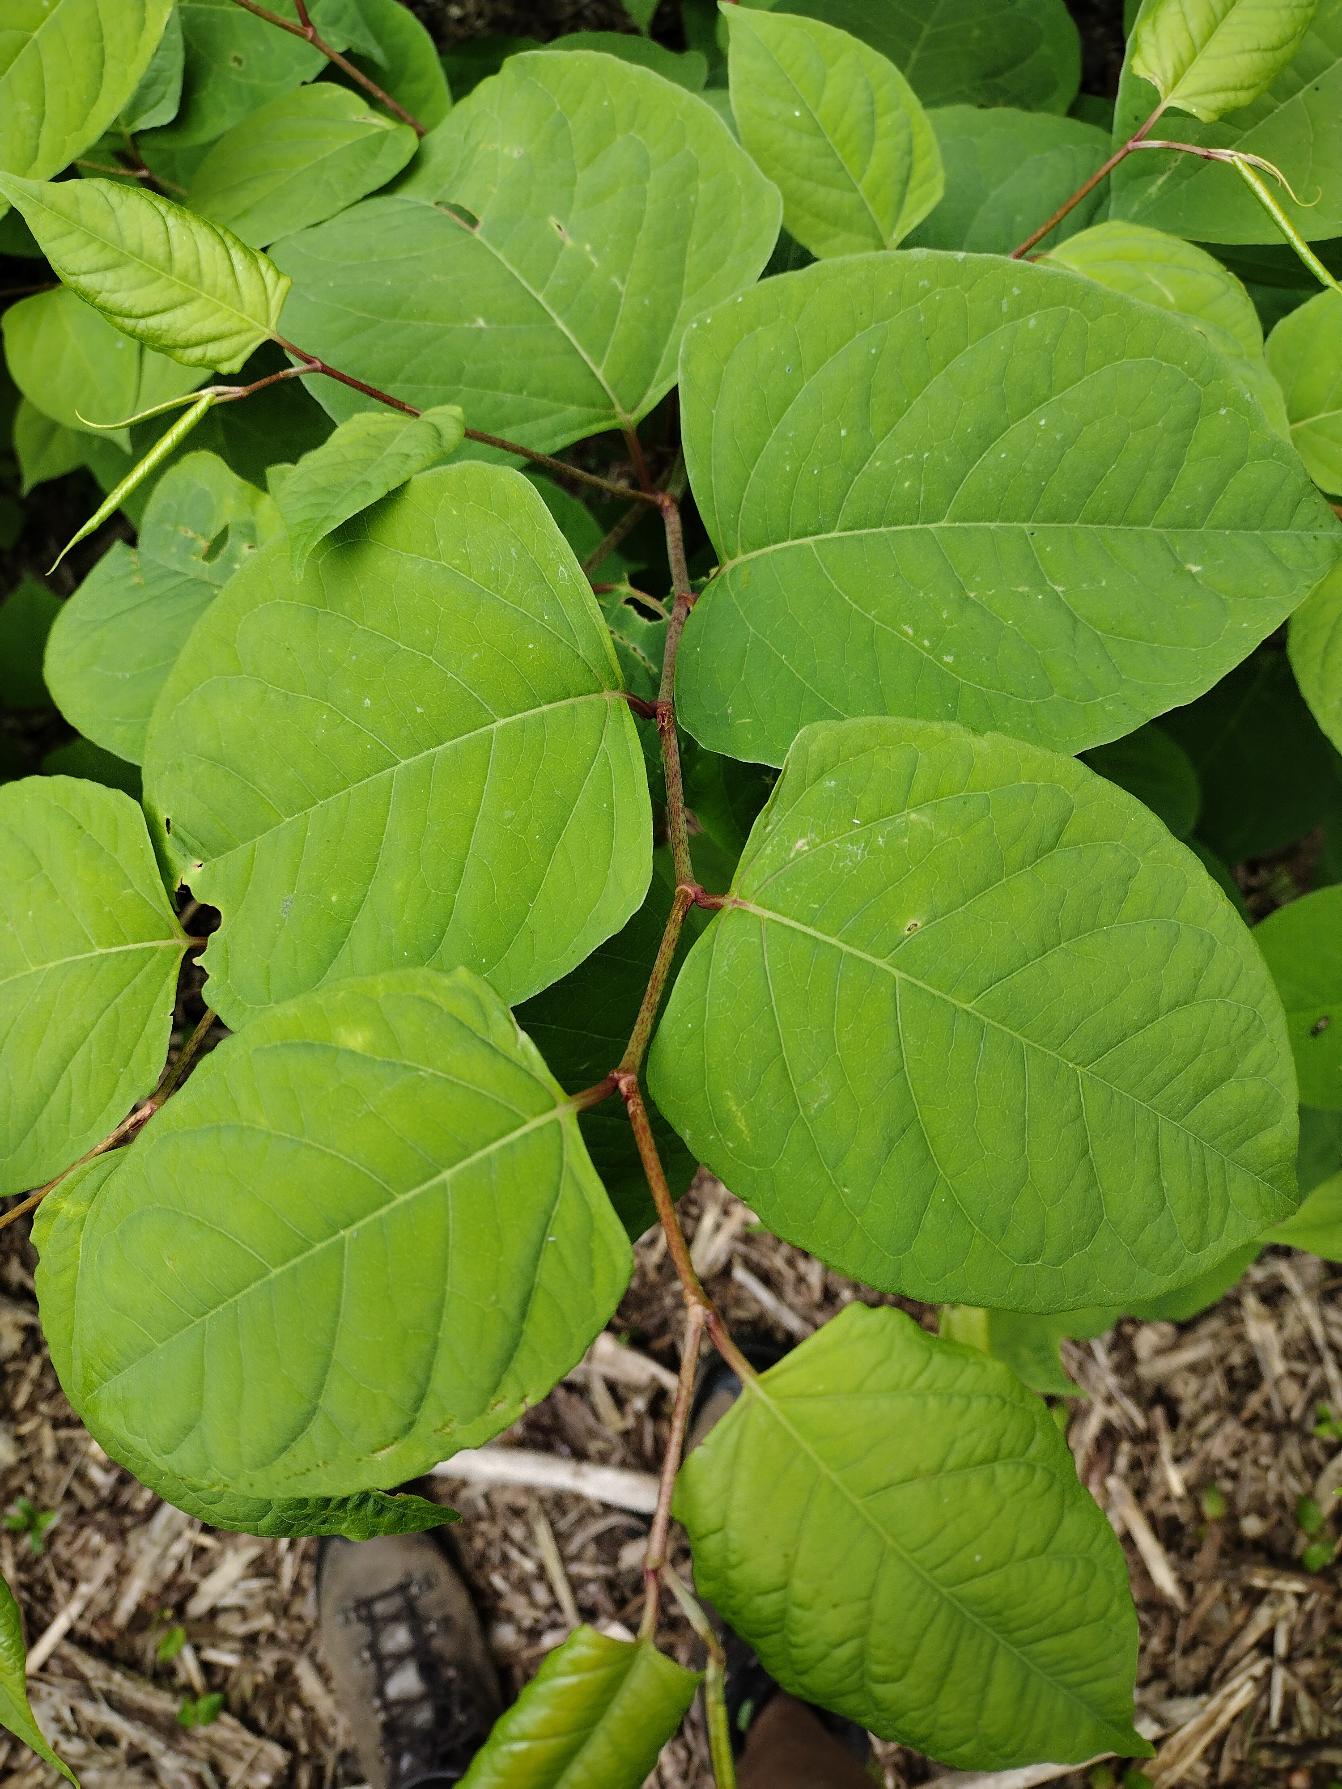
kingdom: Plantae
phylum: Tracheophyta
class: Magnoliopsida
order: Caryophyllales
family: Polygonaceae
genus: Reynoutria
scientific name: Reynoutria japonica
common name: Japan-pileurt
